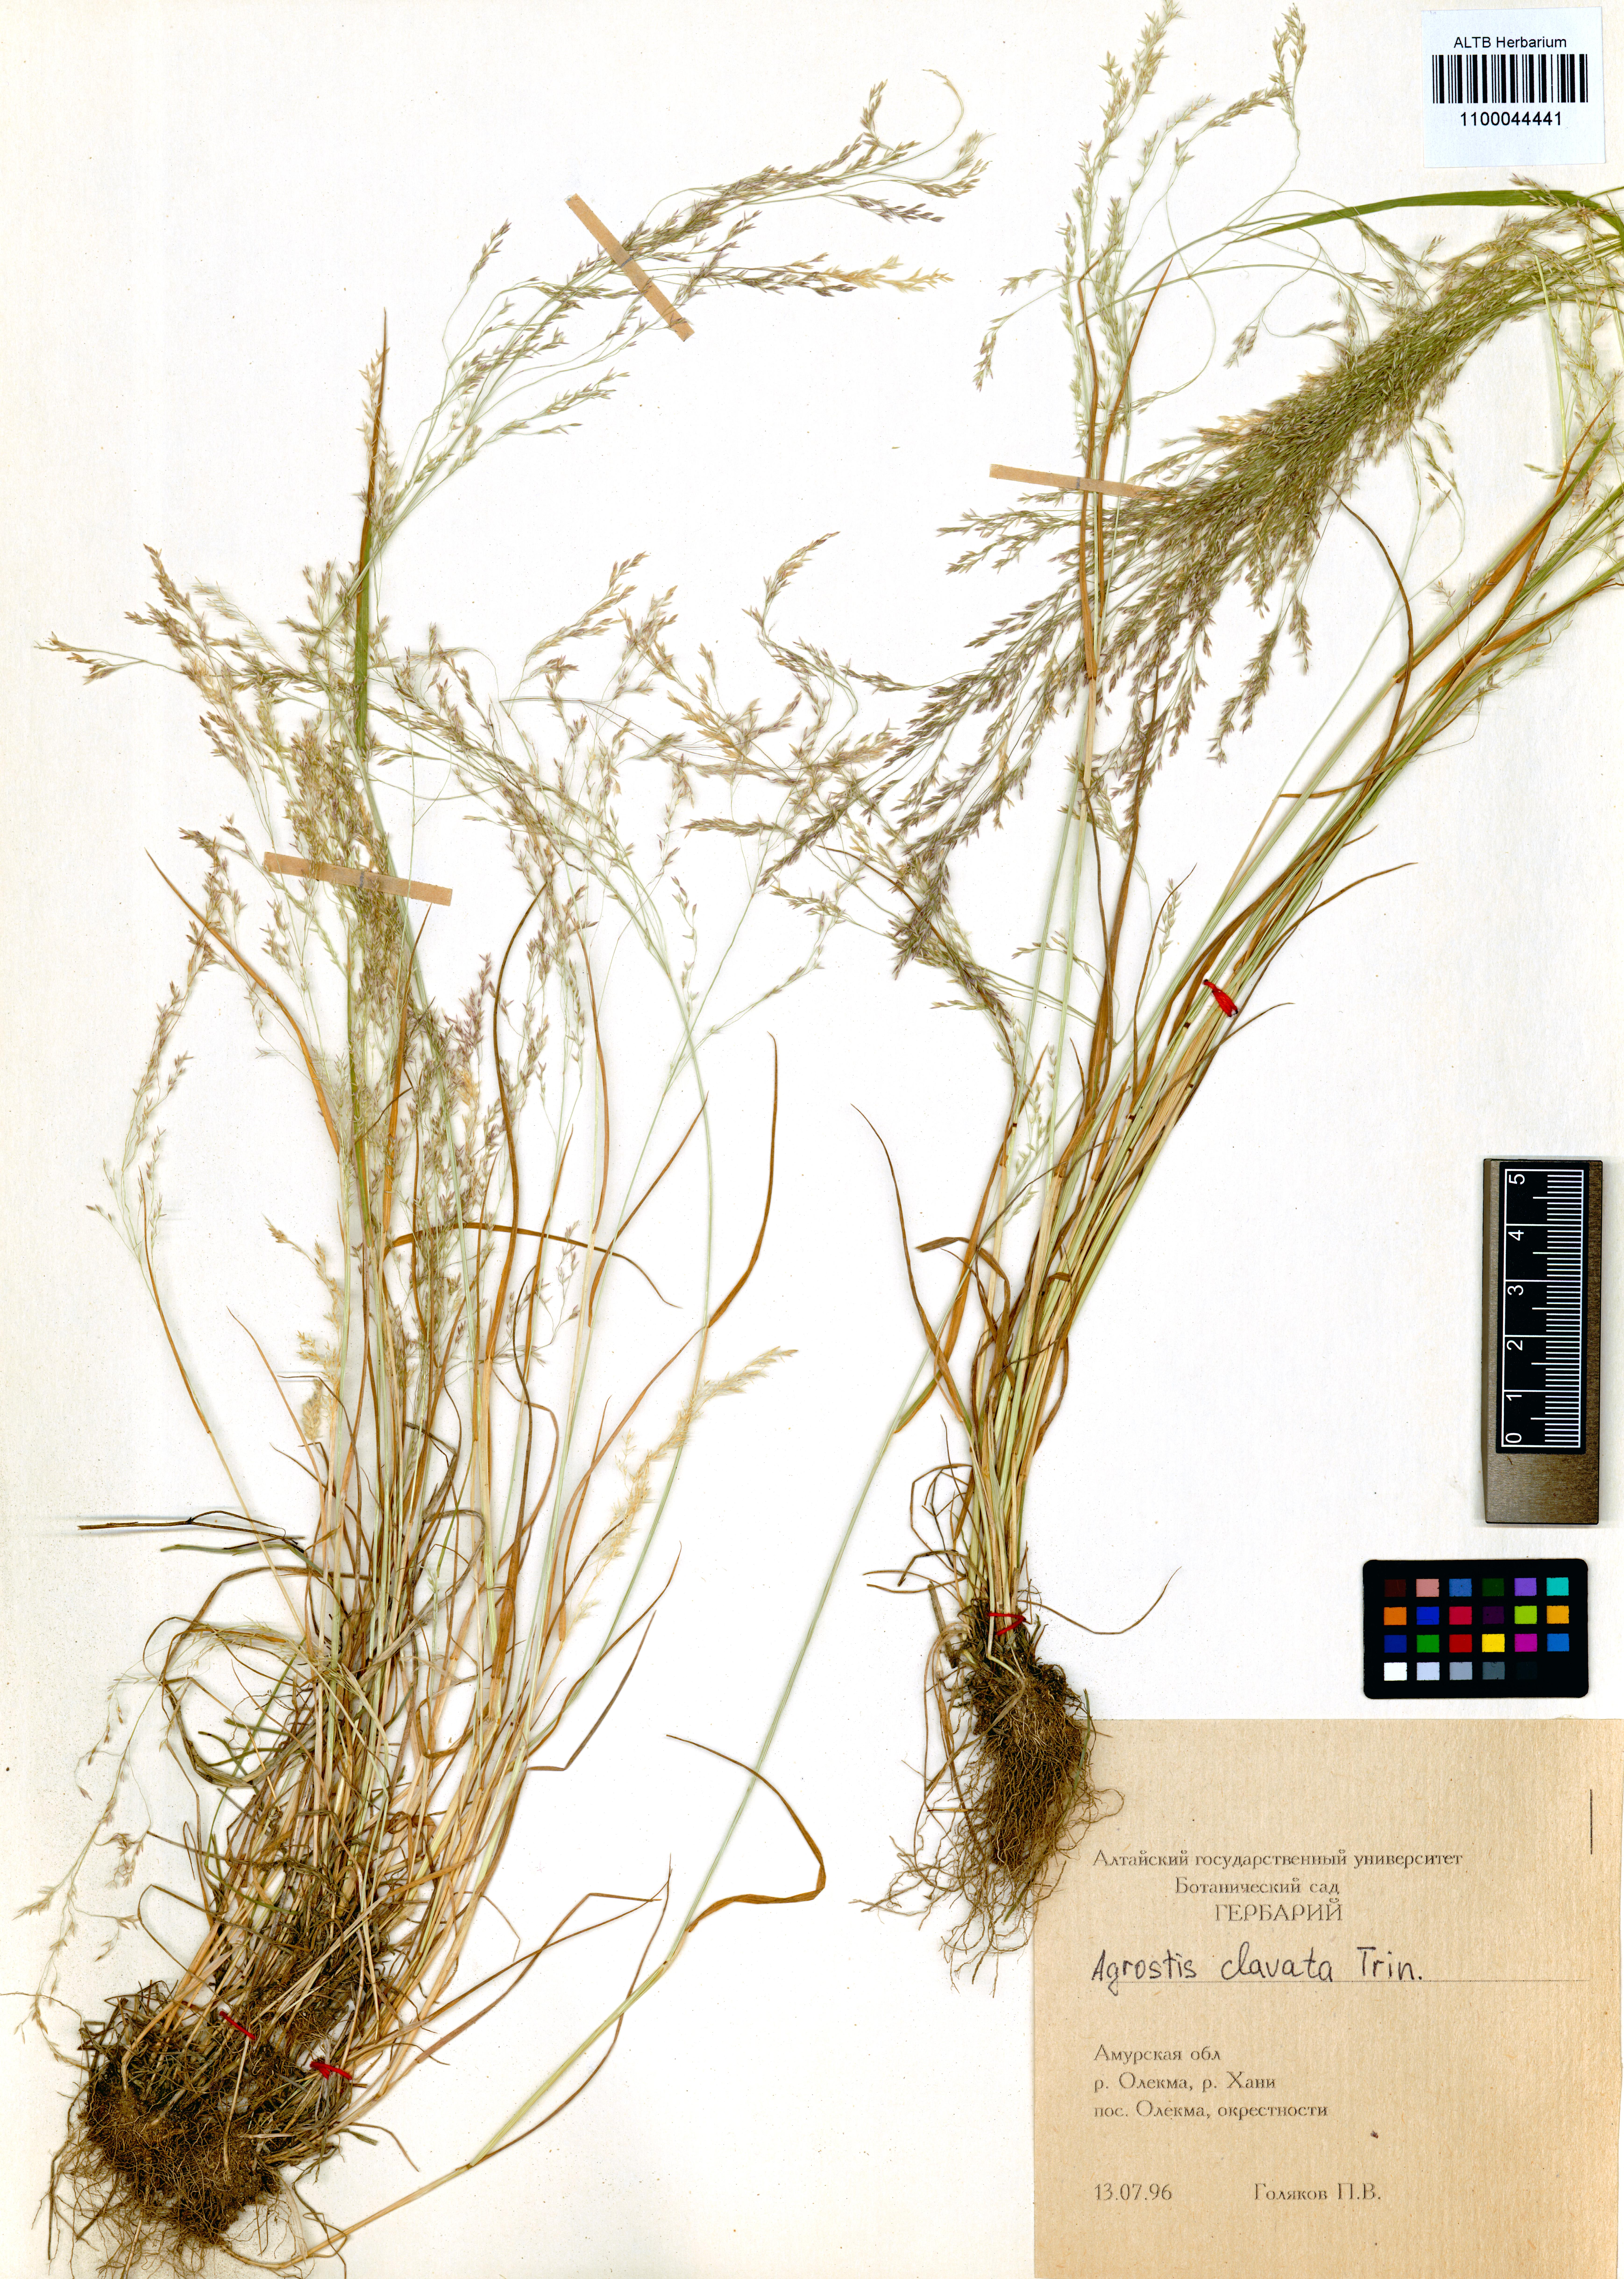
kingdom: Plantae
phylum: Tracheophyta
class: Liliopsida
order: Poales
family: Poaceae
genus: Agrostis
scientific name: Agrostis clavata
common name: Clavate bent
